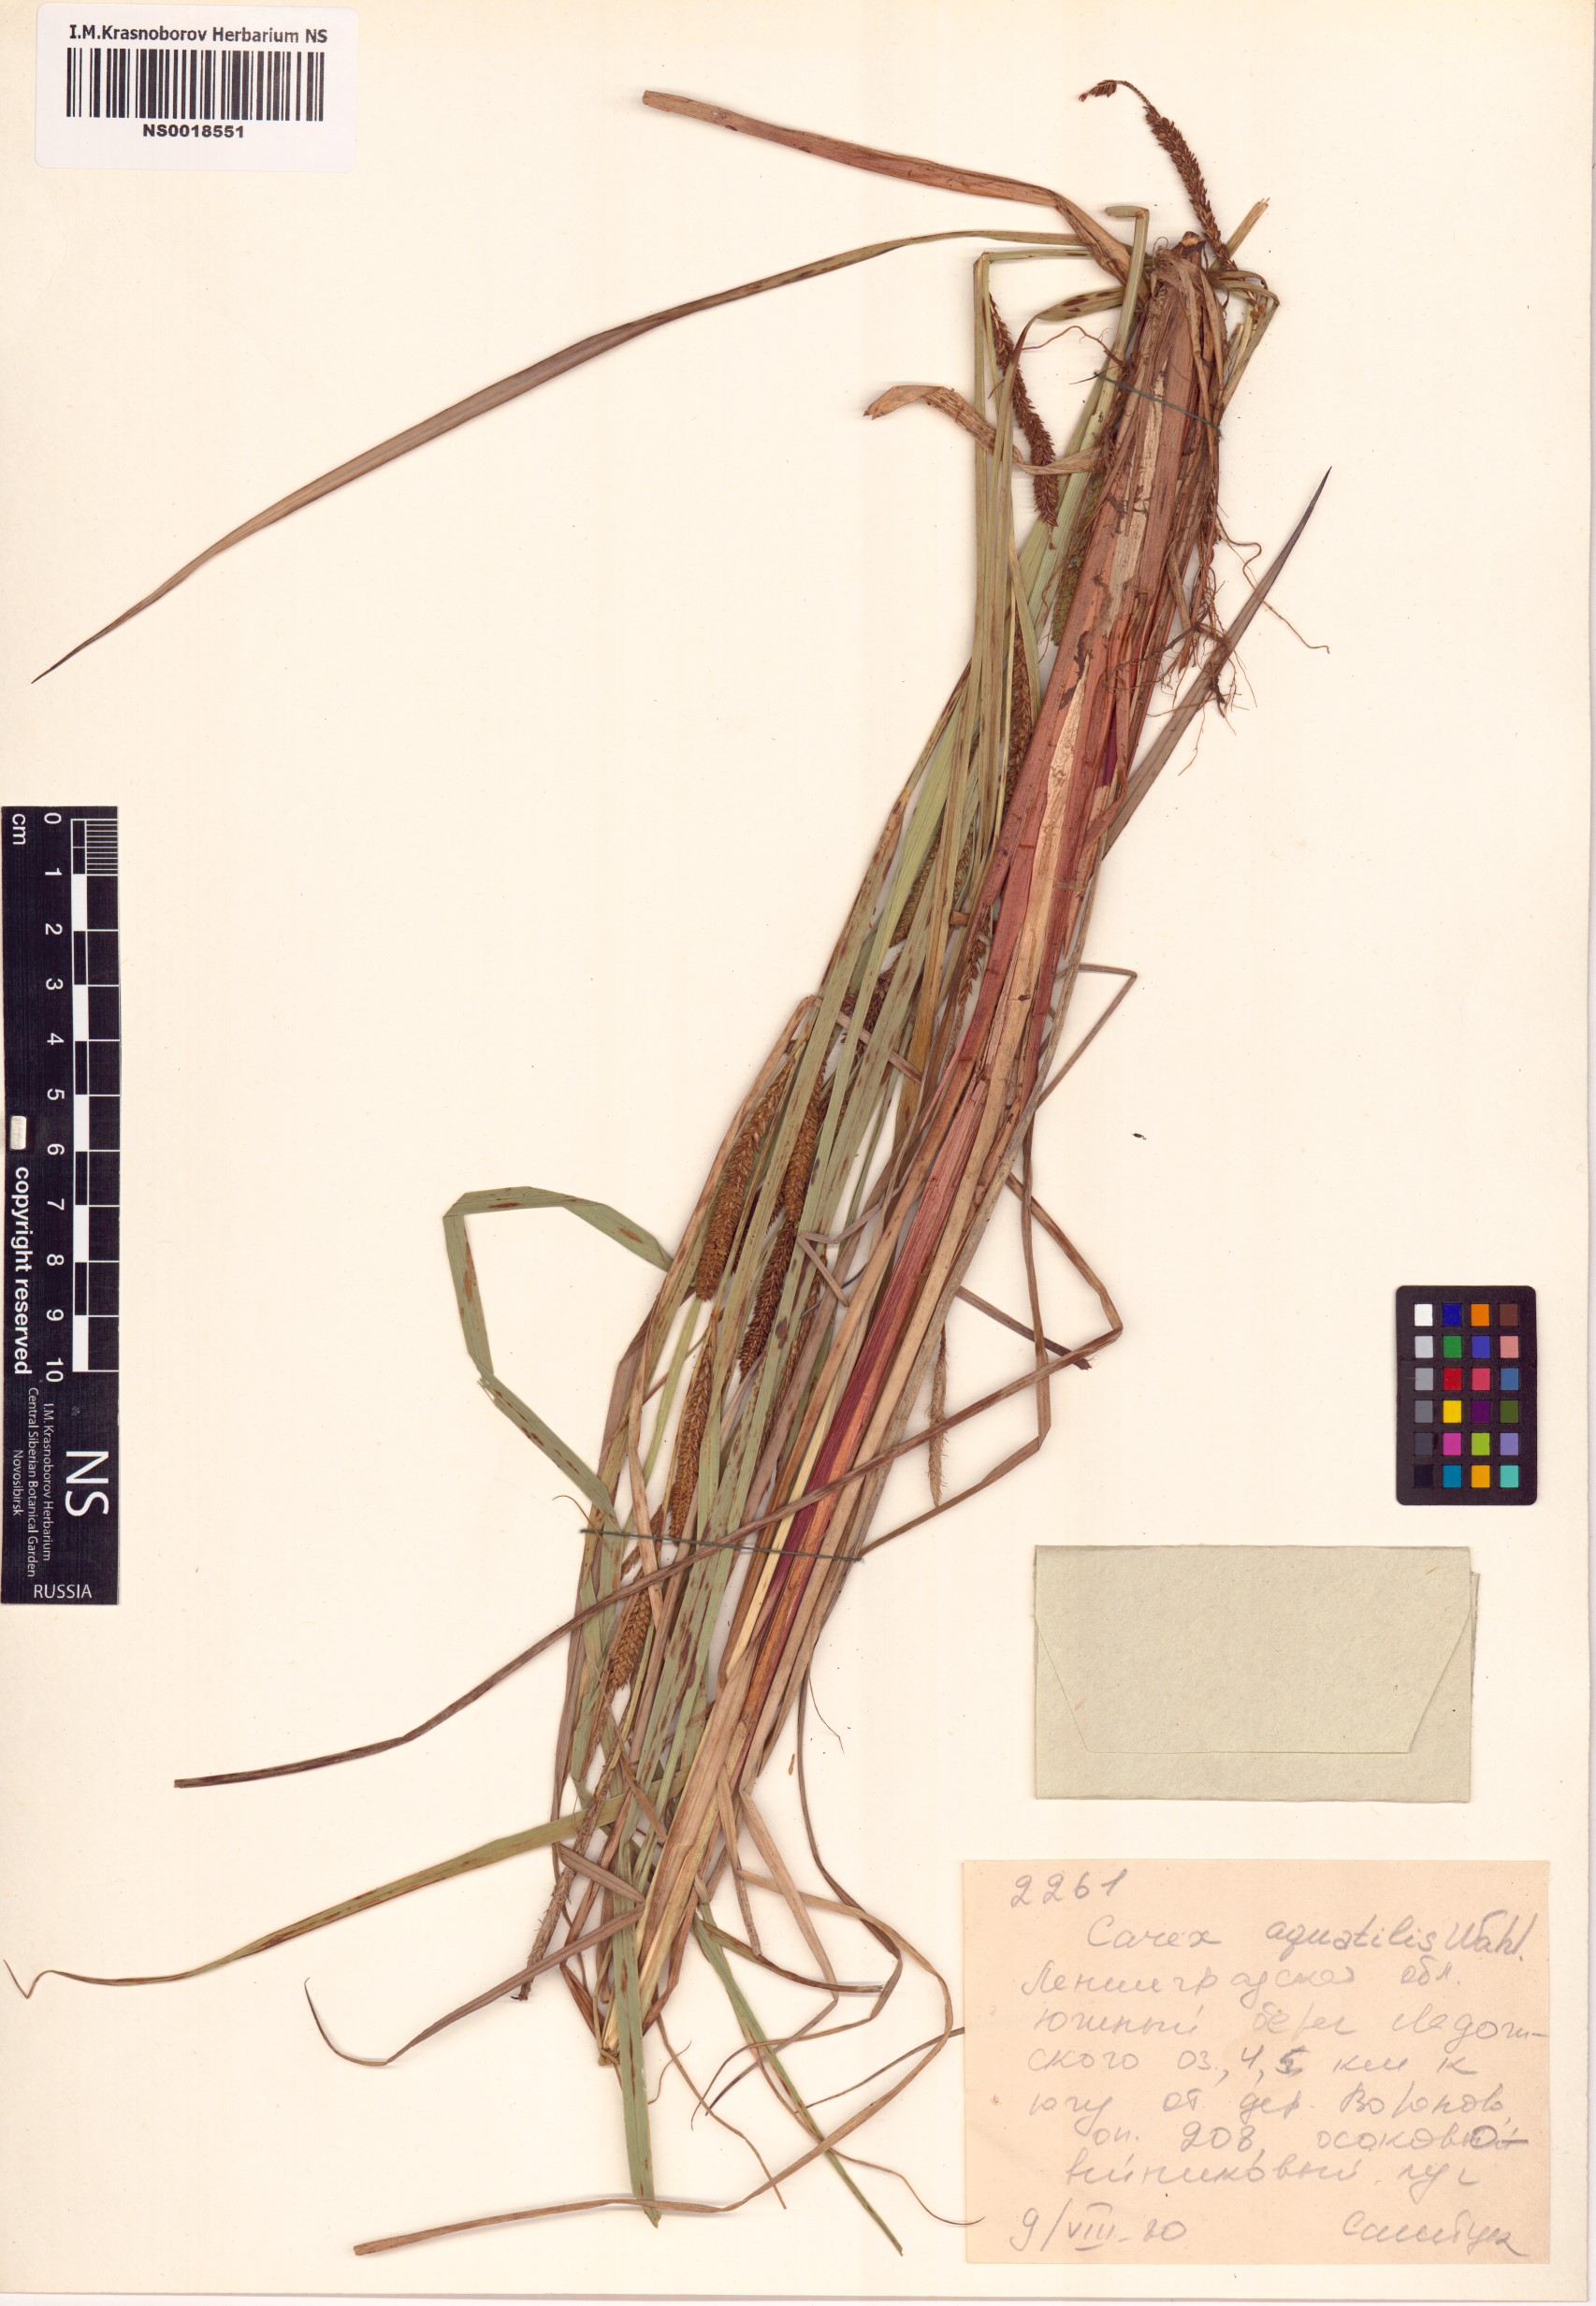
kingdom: Plantae
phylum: Tracheophyta
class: Liliopsida
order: Poales
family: Cyperaceae
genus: Carex
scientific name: Carex aquatilis
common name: Water sedge
